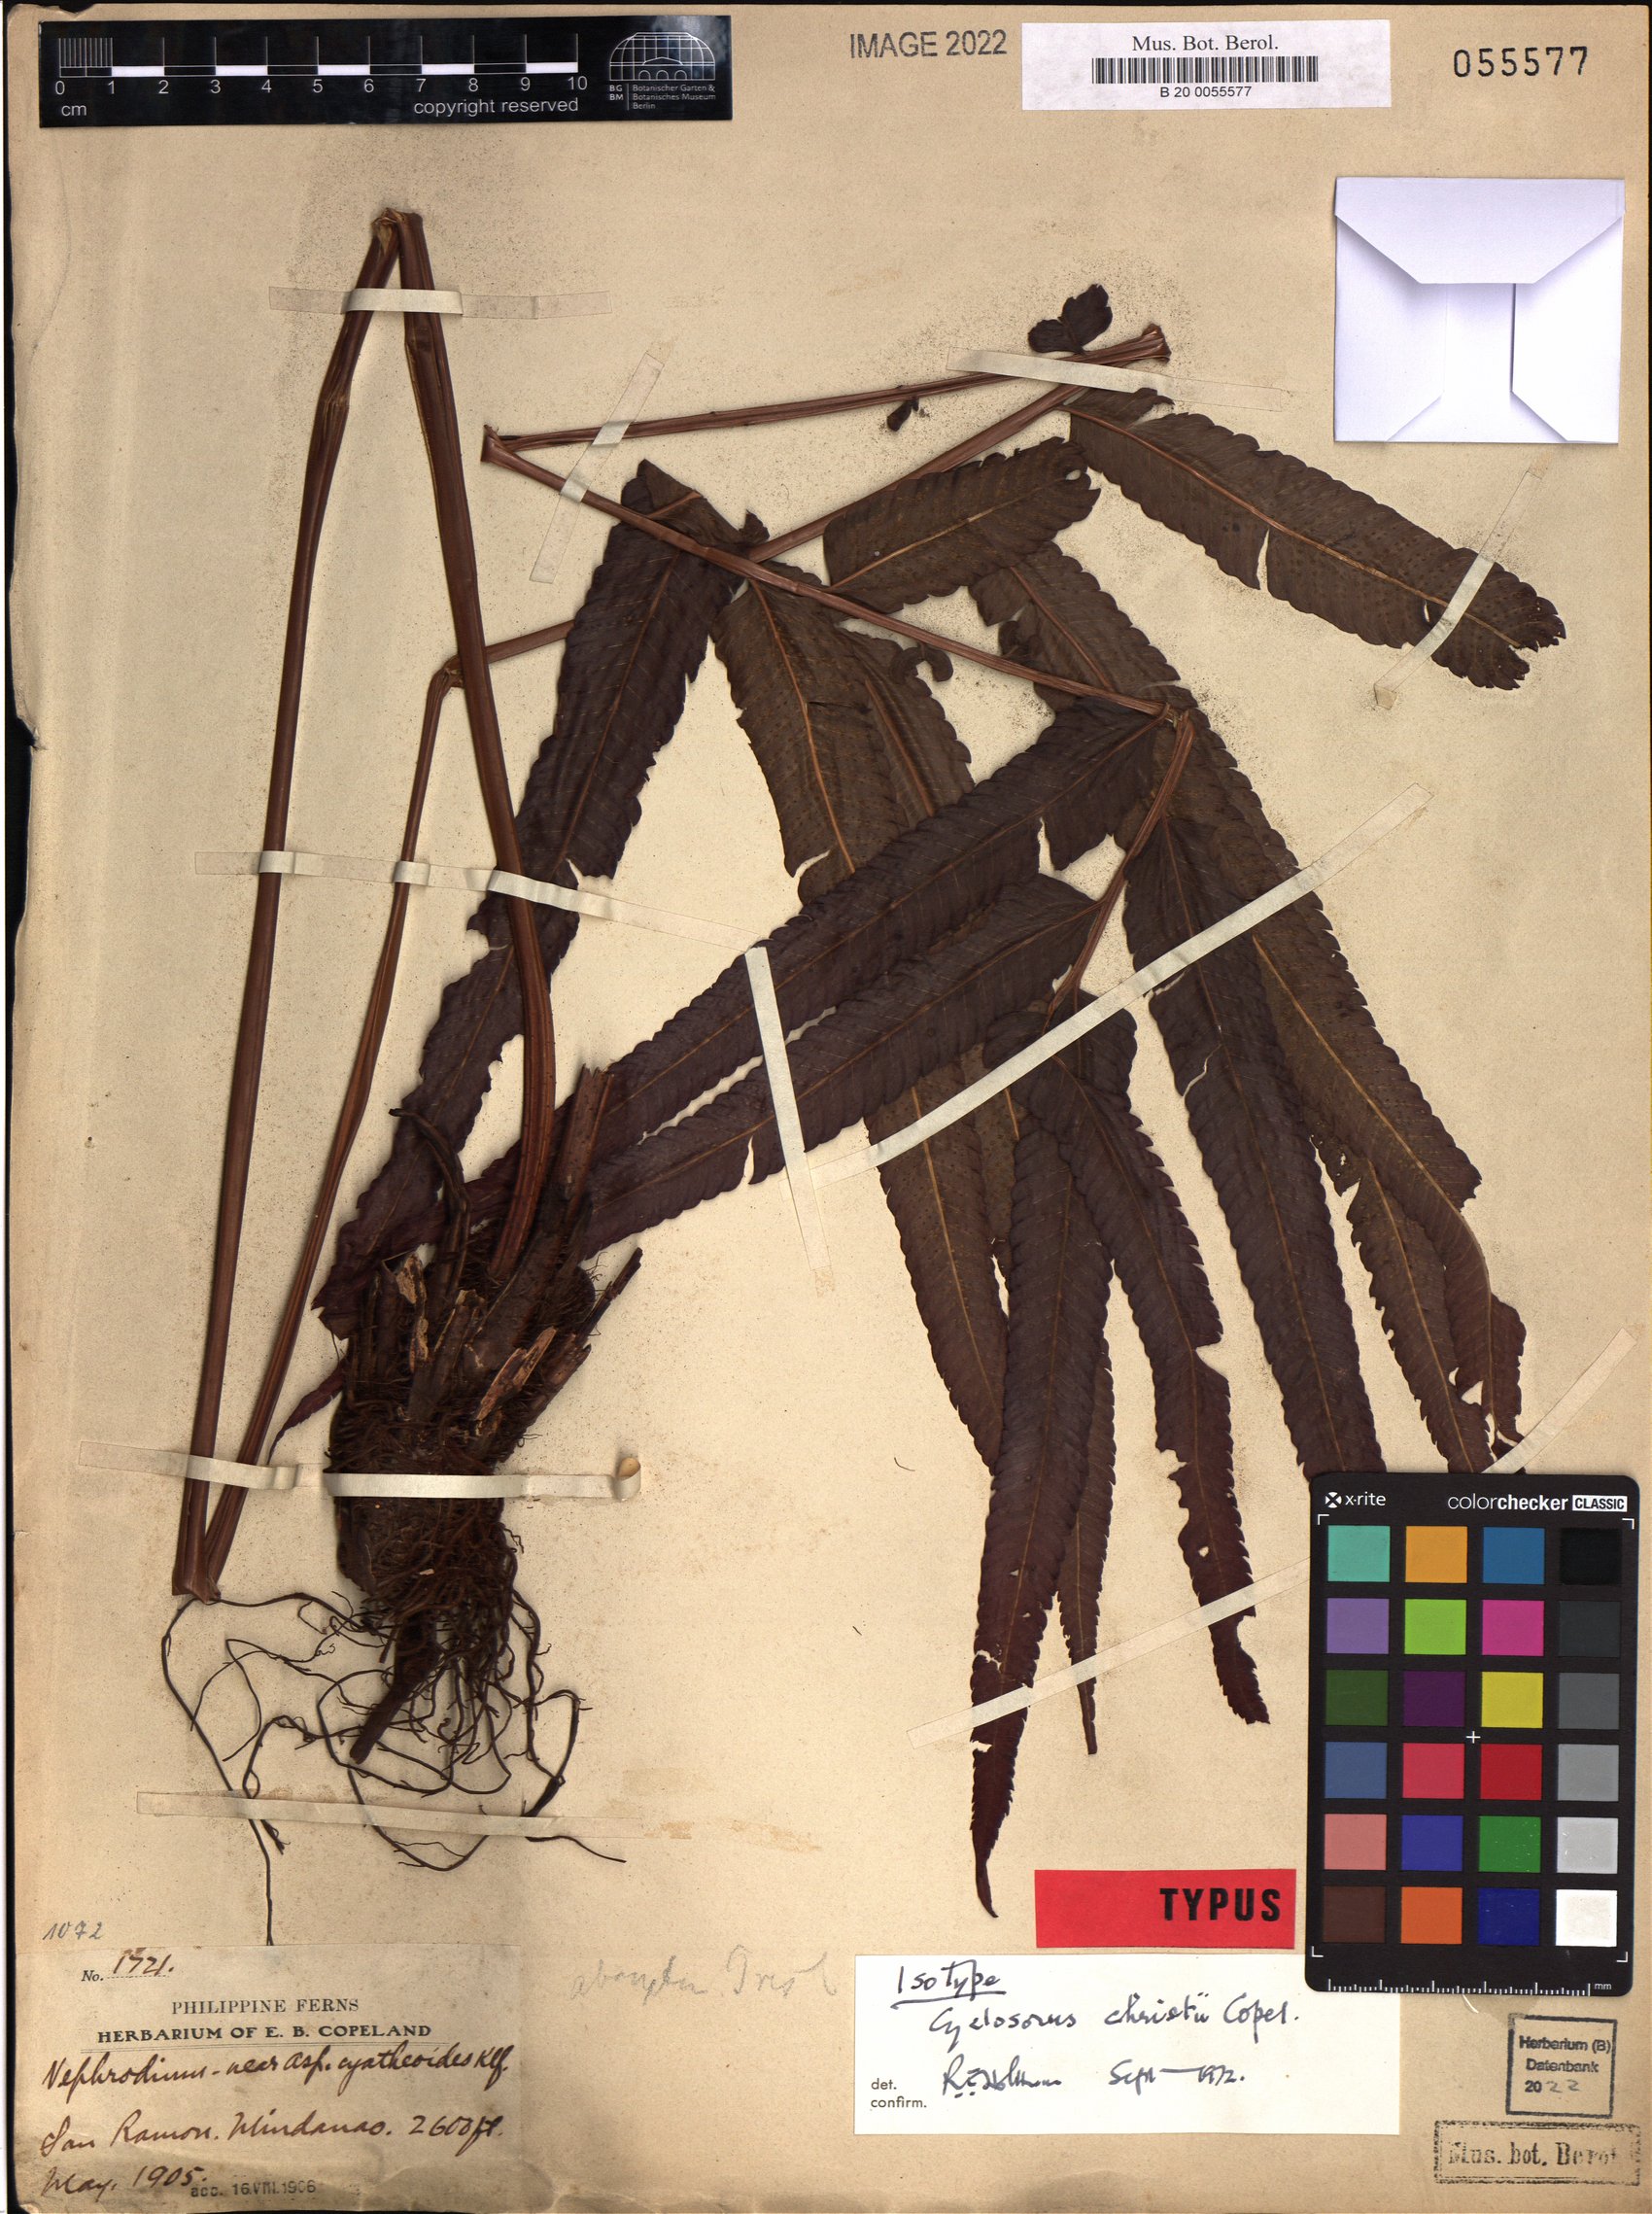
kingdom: Plantae
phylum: Tracheophyta
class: Polypodiopsida
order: Polypodiales
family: Thelypteridaceae
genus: Chingia
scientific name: Chingia christii
